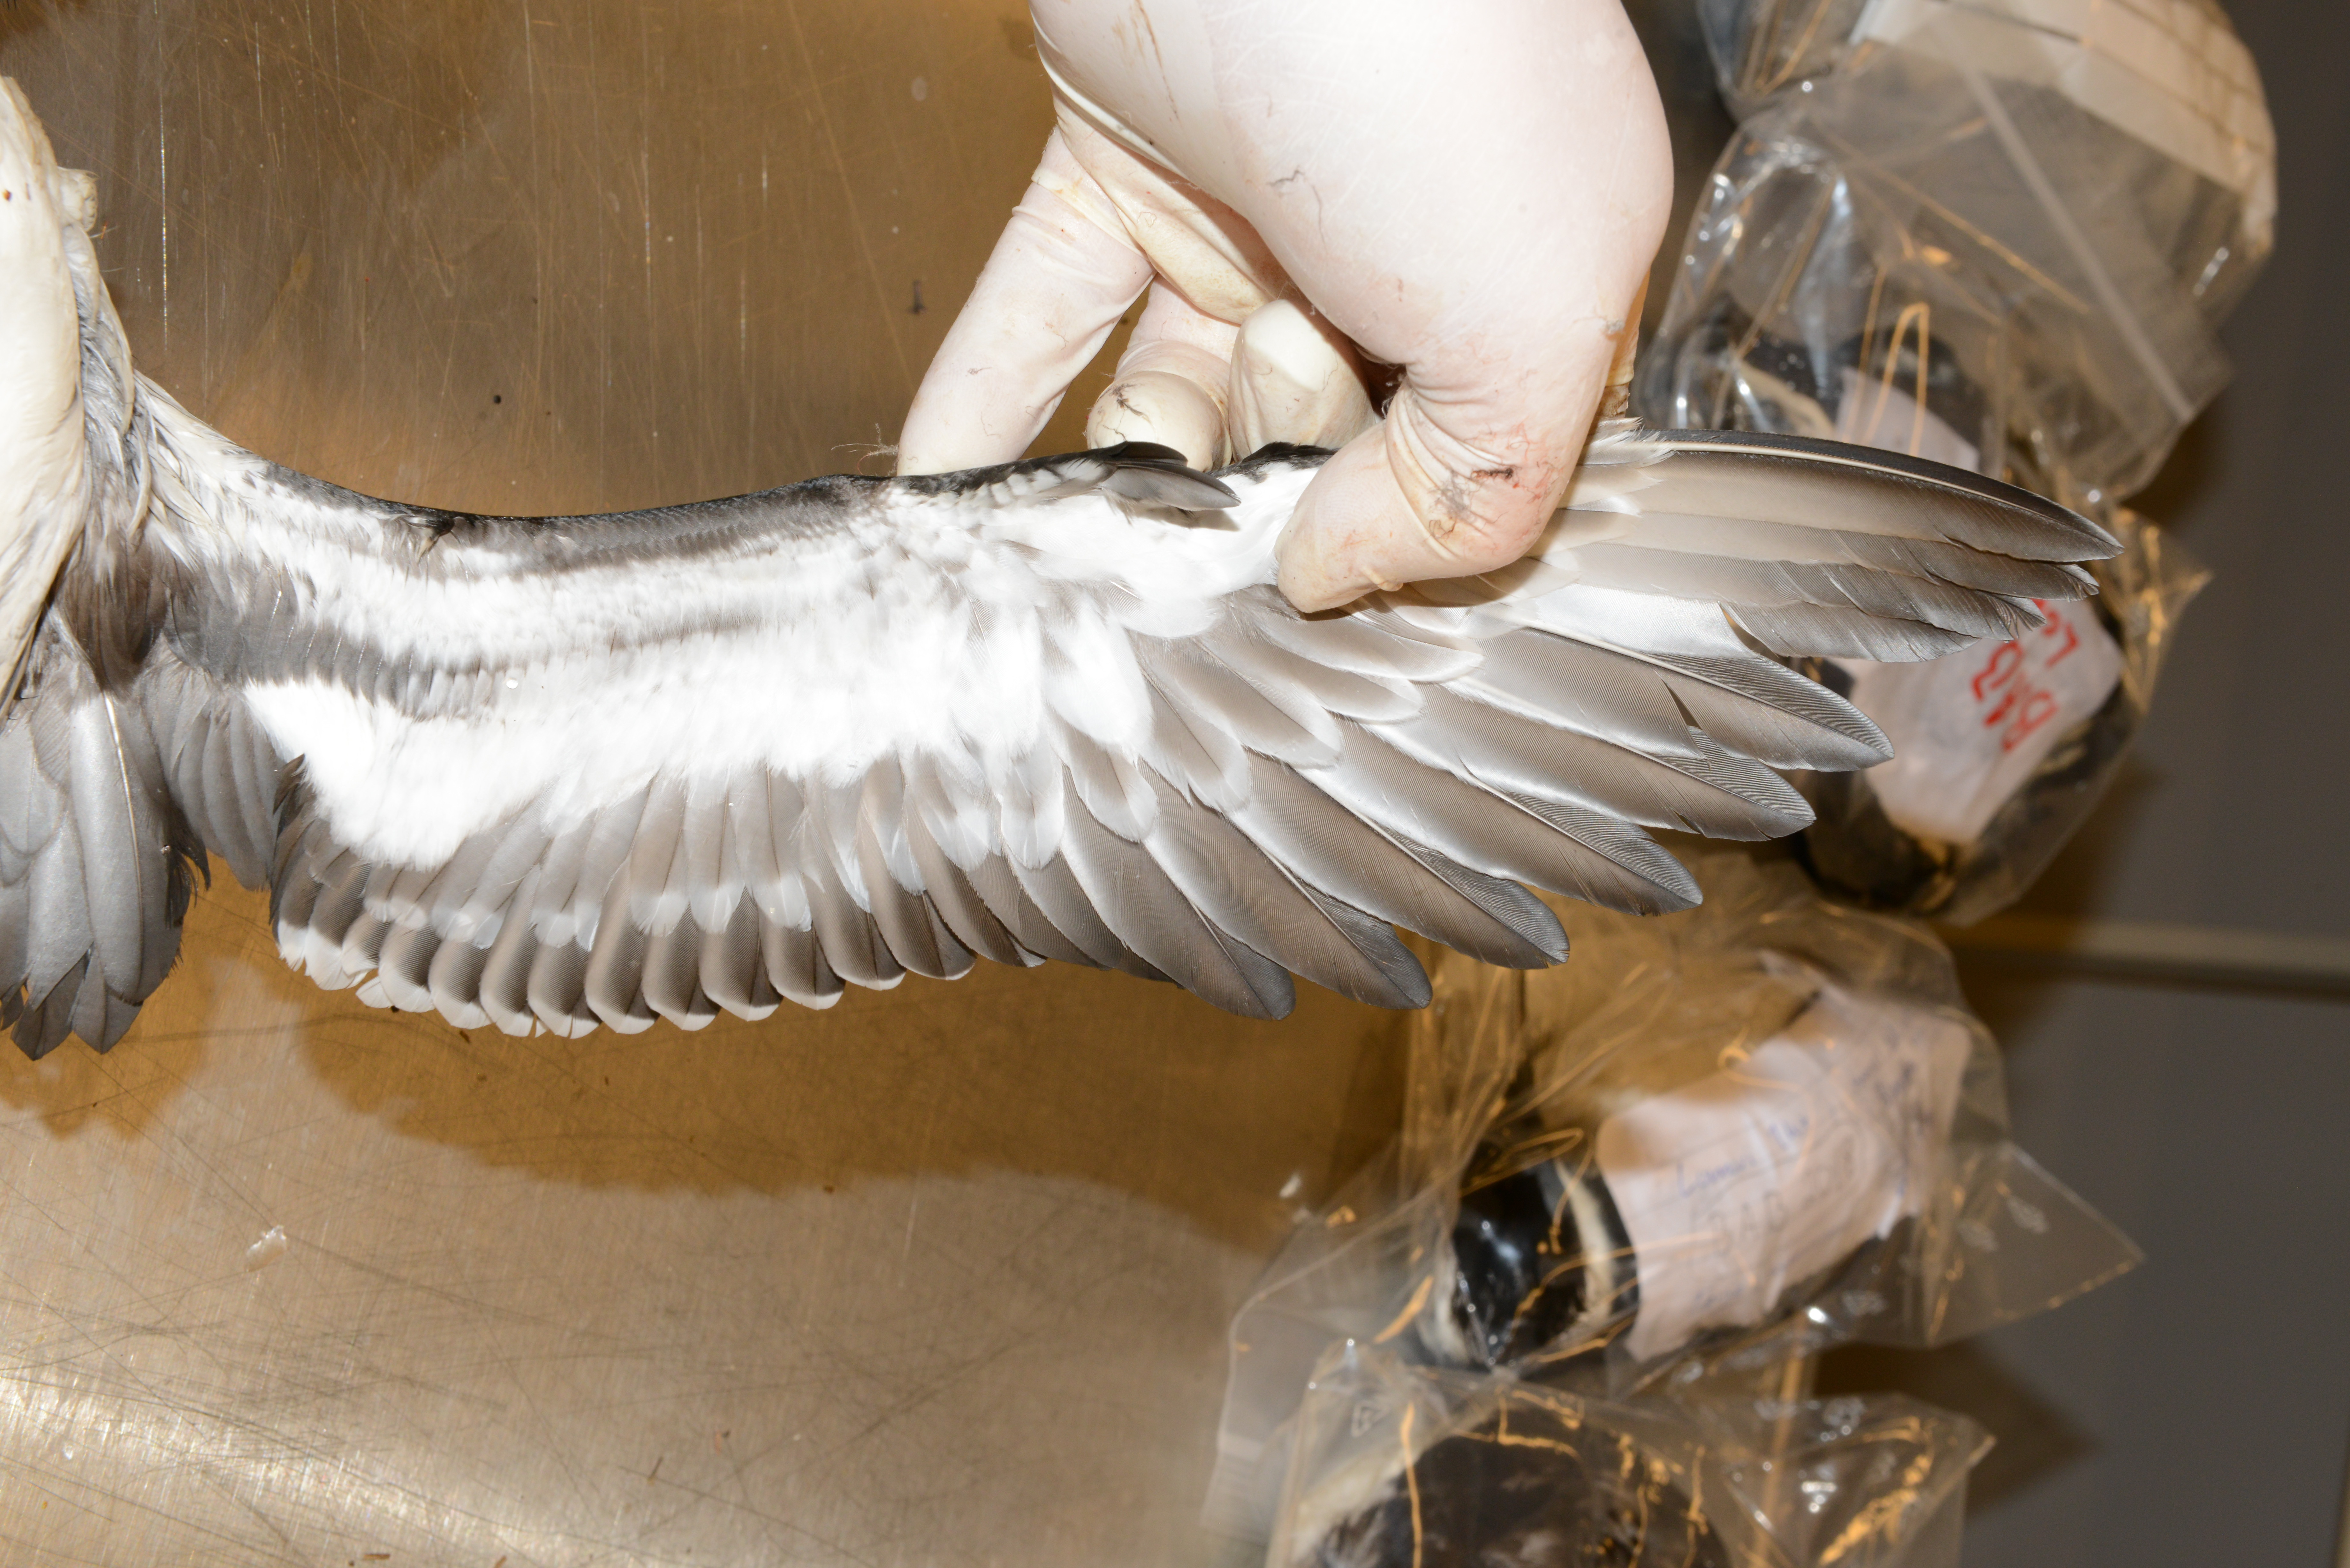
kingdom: Animalia
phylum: Chordata
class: Aves
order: Charadriiformes
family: Alcidae
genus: Uria
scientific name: Uria aalge
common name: Common murre
